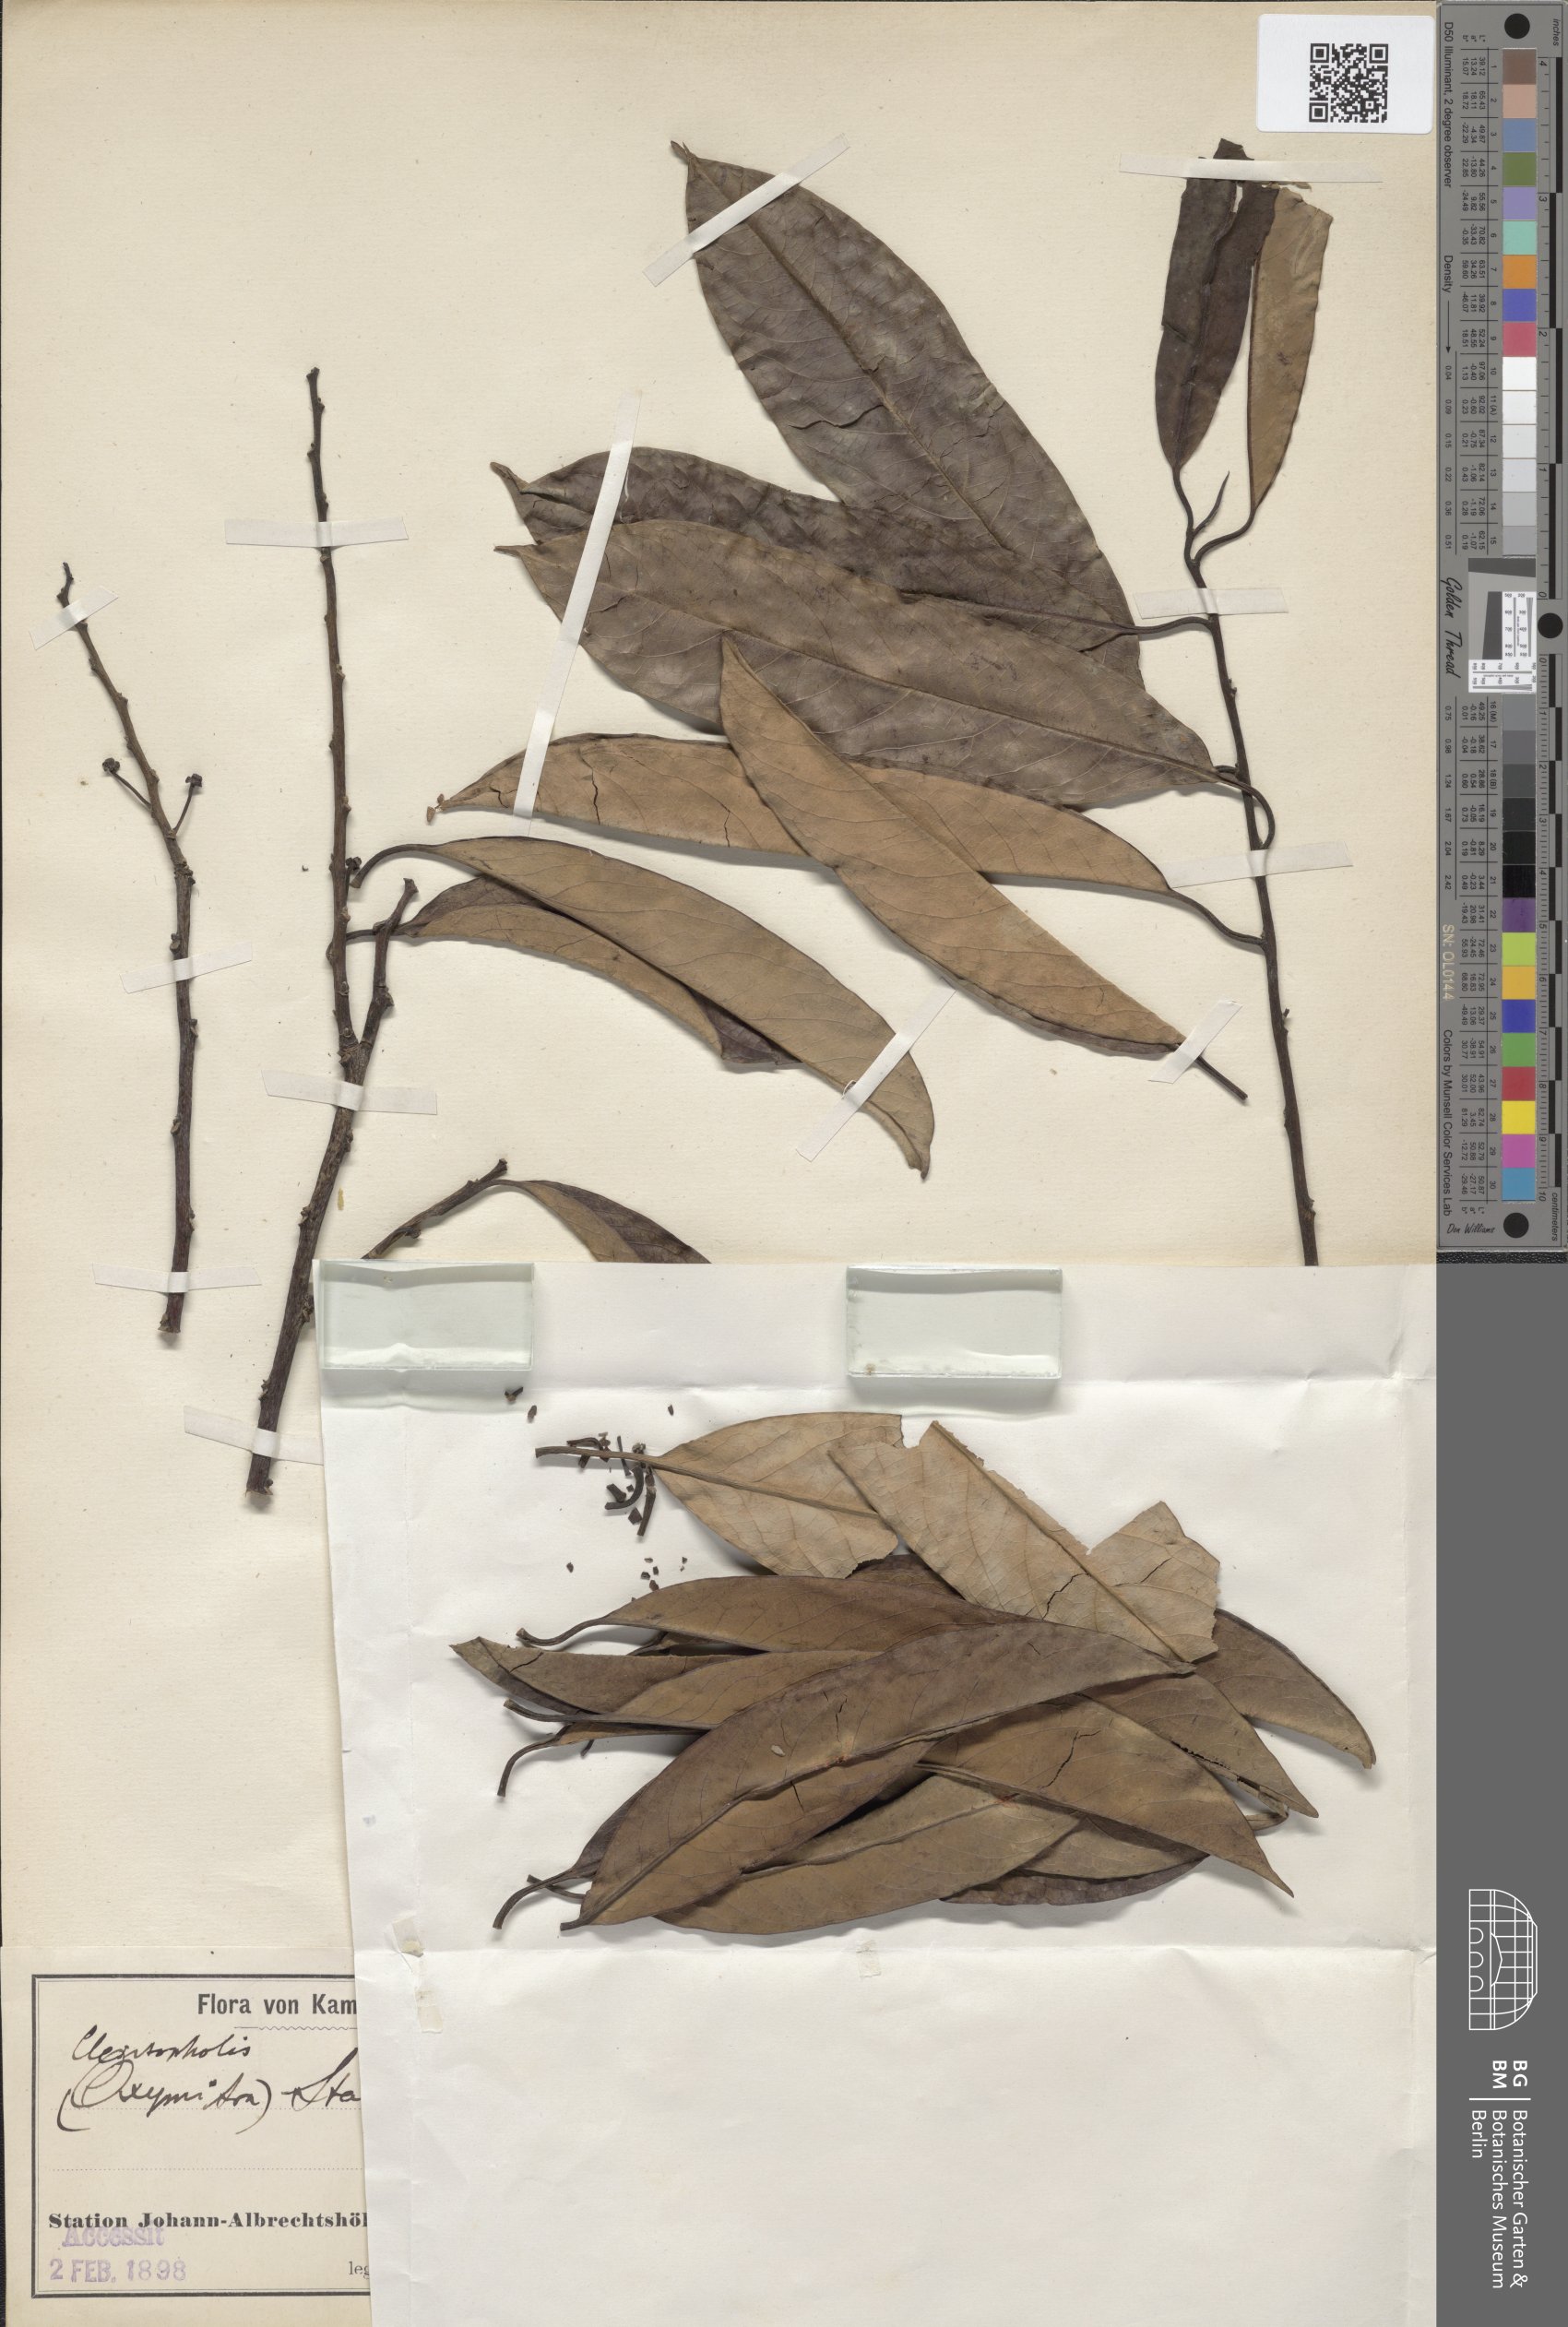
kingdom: Plantae
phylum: Tracheophyta
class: Magnoliopsida
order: Magnoliales
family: Annonaceae
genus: Cleistopholis
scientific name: Cleistopholis staudtii
